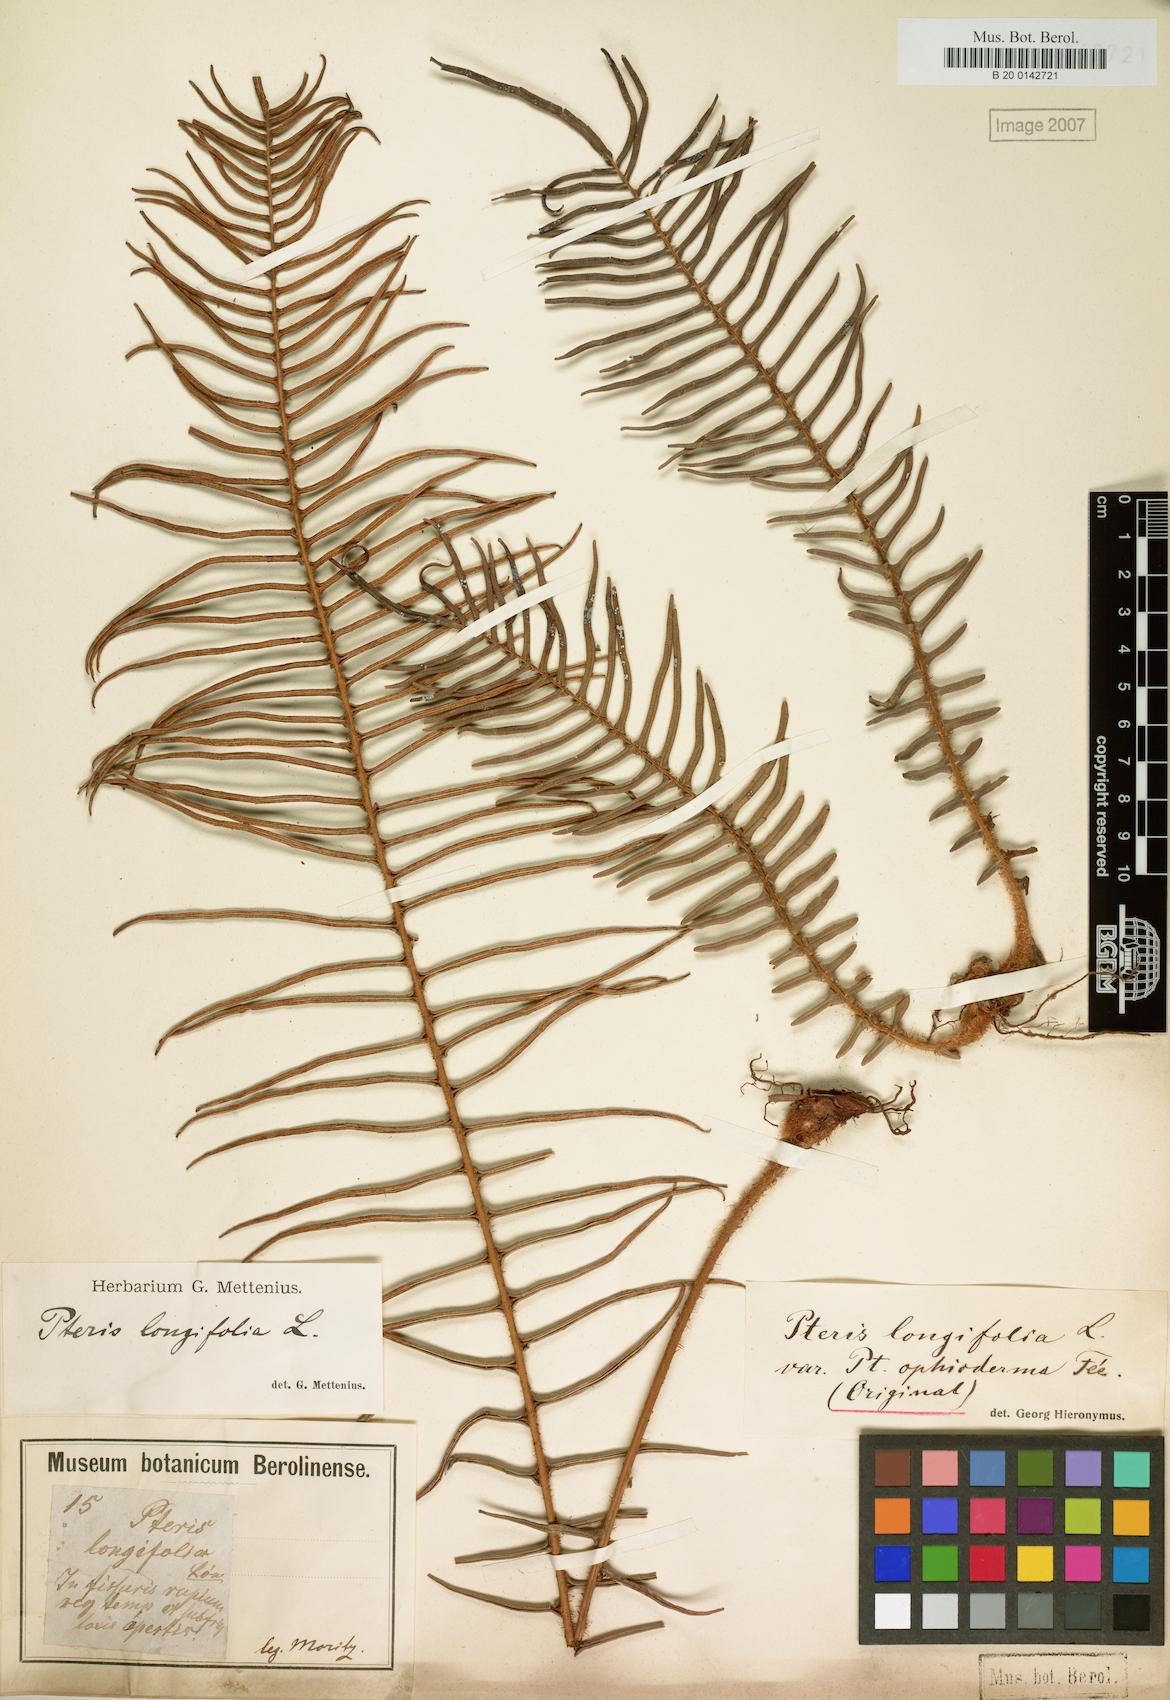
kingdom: Plantae
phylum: Tracheophyta
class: Polypodiopsida
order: Polypodiales
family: Pteridaceae
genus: Pteris
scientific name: Pteris vittata
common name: Ladder brake
